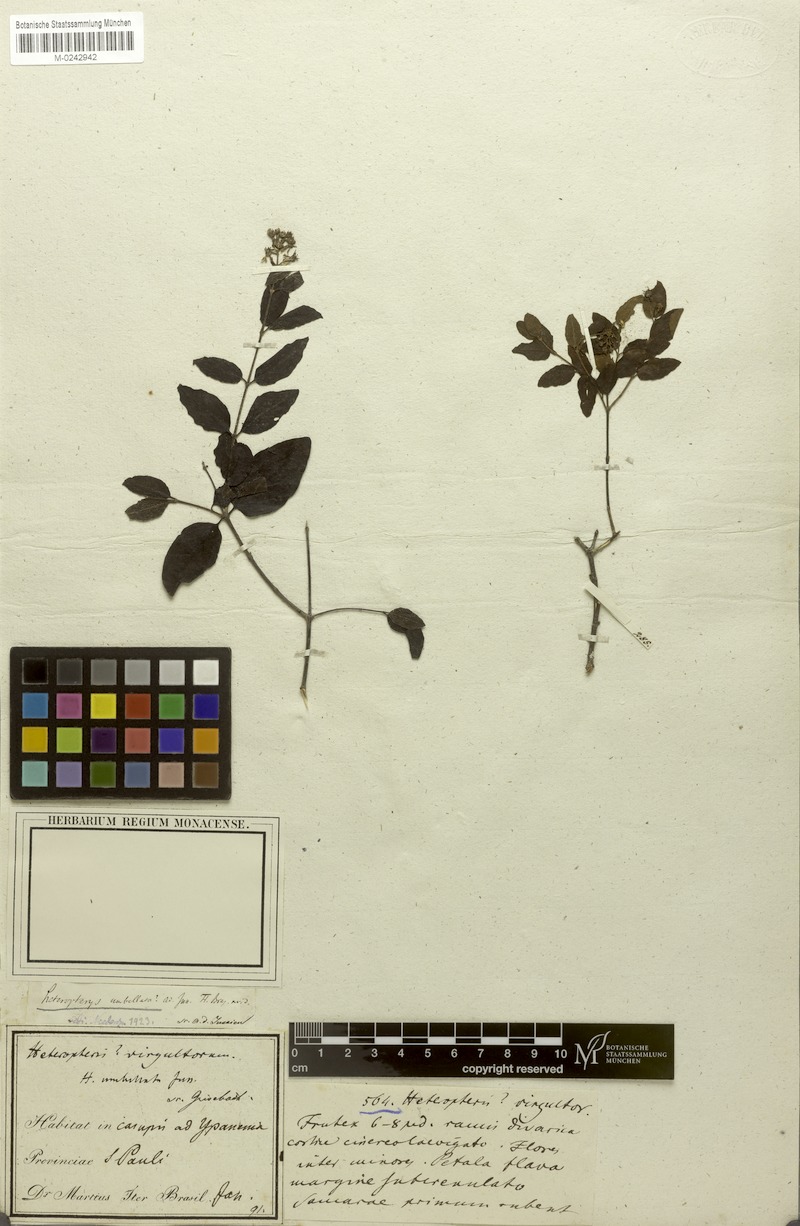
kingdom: Plantae
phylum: Tracheophyta
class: Magnoliopsida
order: Malpighiales
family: Malpighiaceae
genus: Heteropterys
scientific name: Heteropterys umbellata
